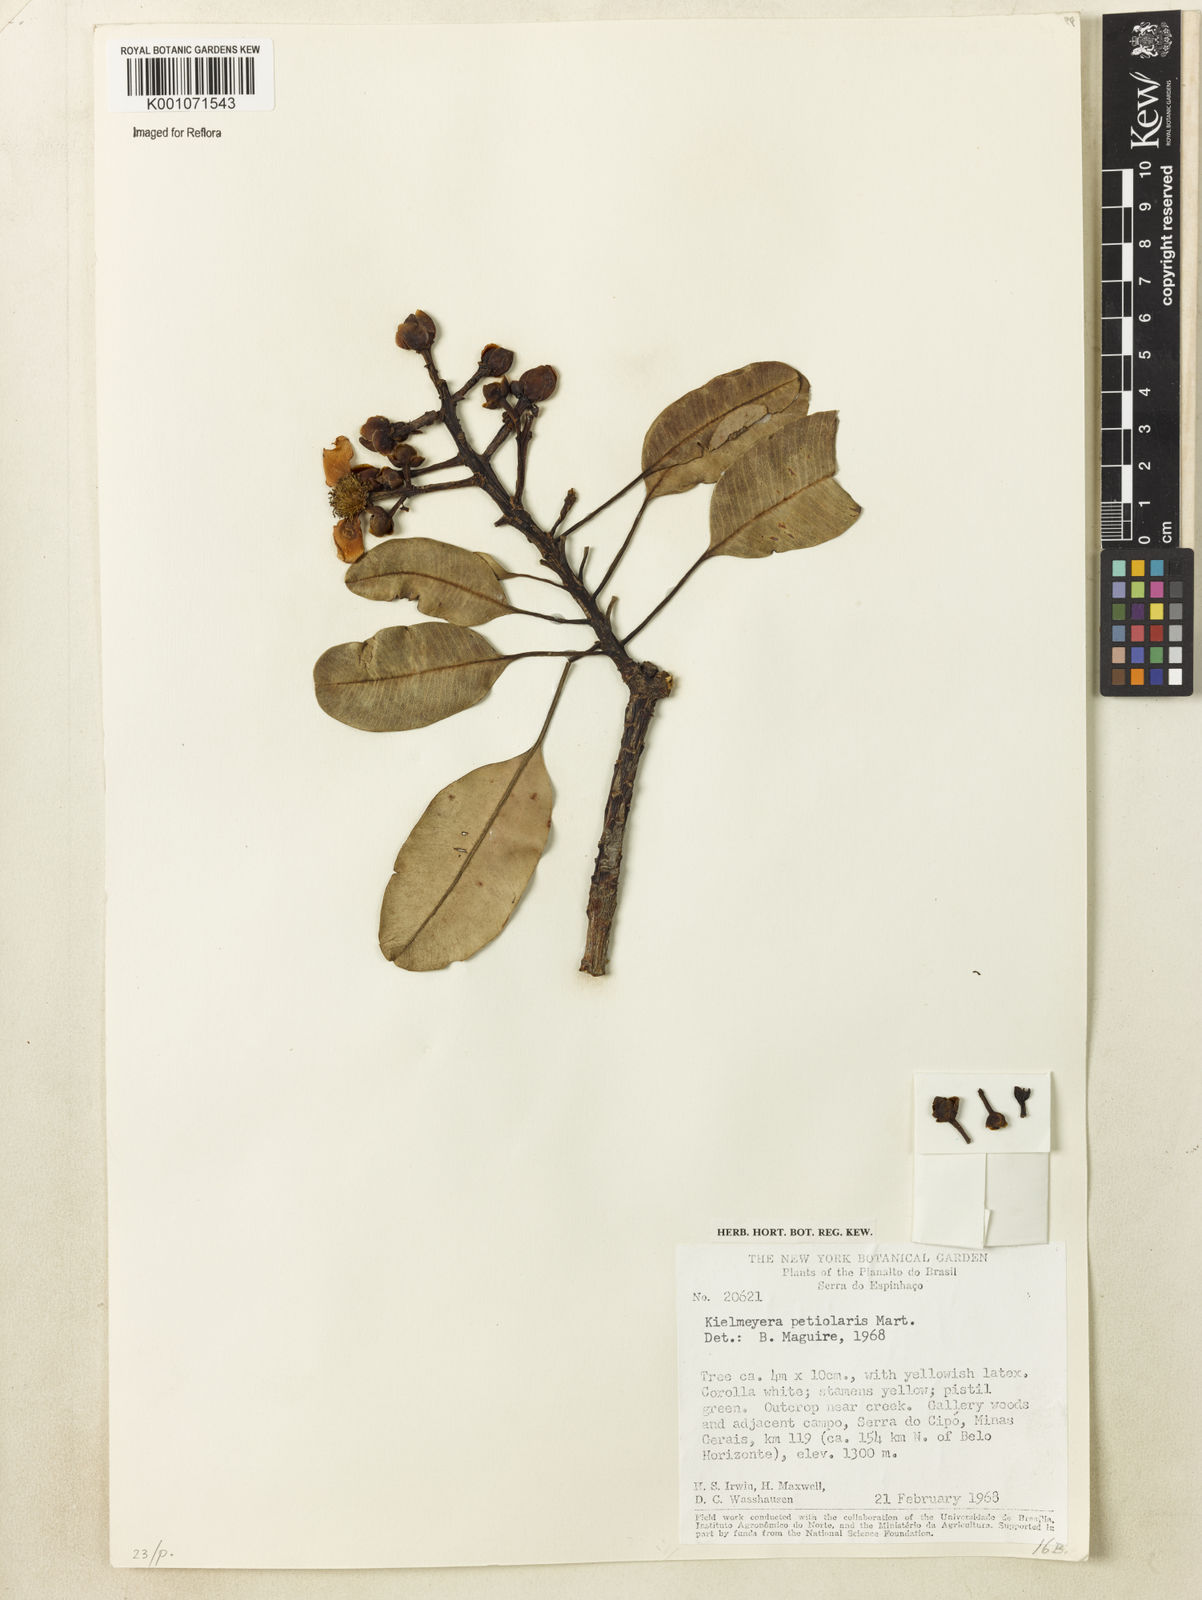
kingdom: Plantae
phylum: Tracheophyta
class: Magnoliopsida
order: Malpighiales
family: Calophyllaceae
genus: Kielmeyera
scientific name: Kielmeyera petiolaris
